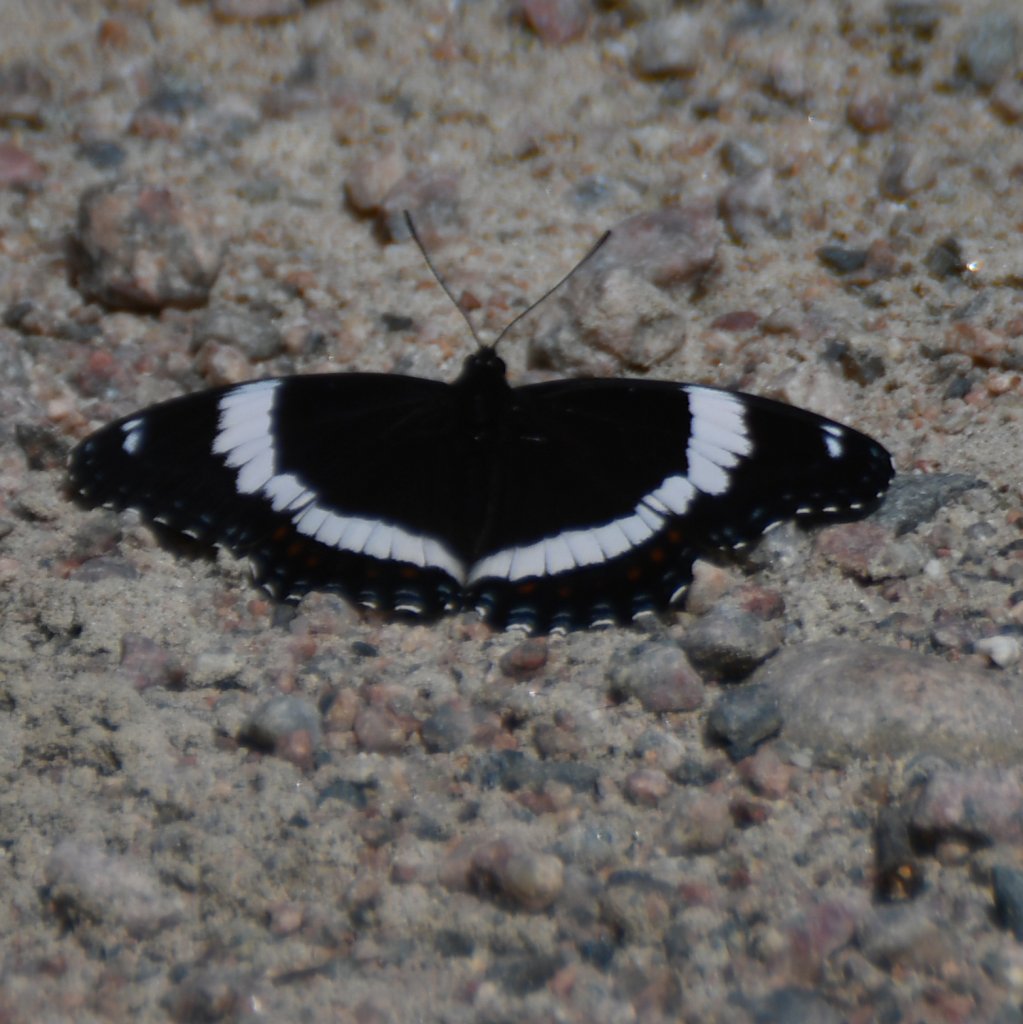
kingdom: Animalia
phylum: Arthropoda
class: Insecta
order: Lepidoptera
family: Nymphalidae
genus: Limenitis
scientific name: Limenitis arthemis
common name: Red-spotted Admiral
